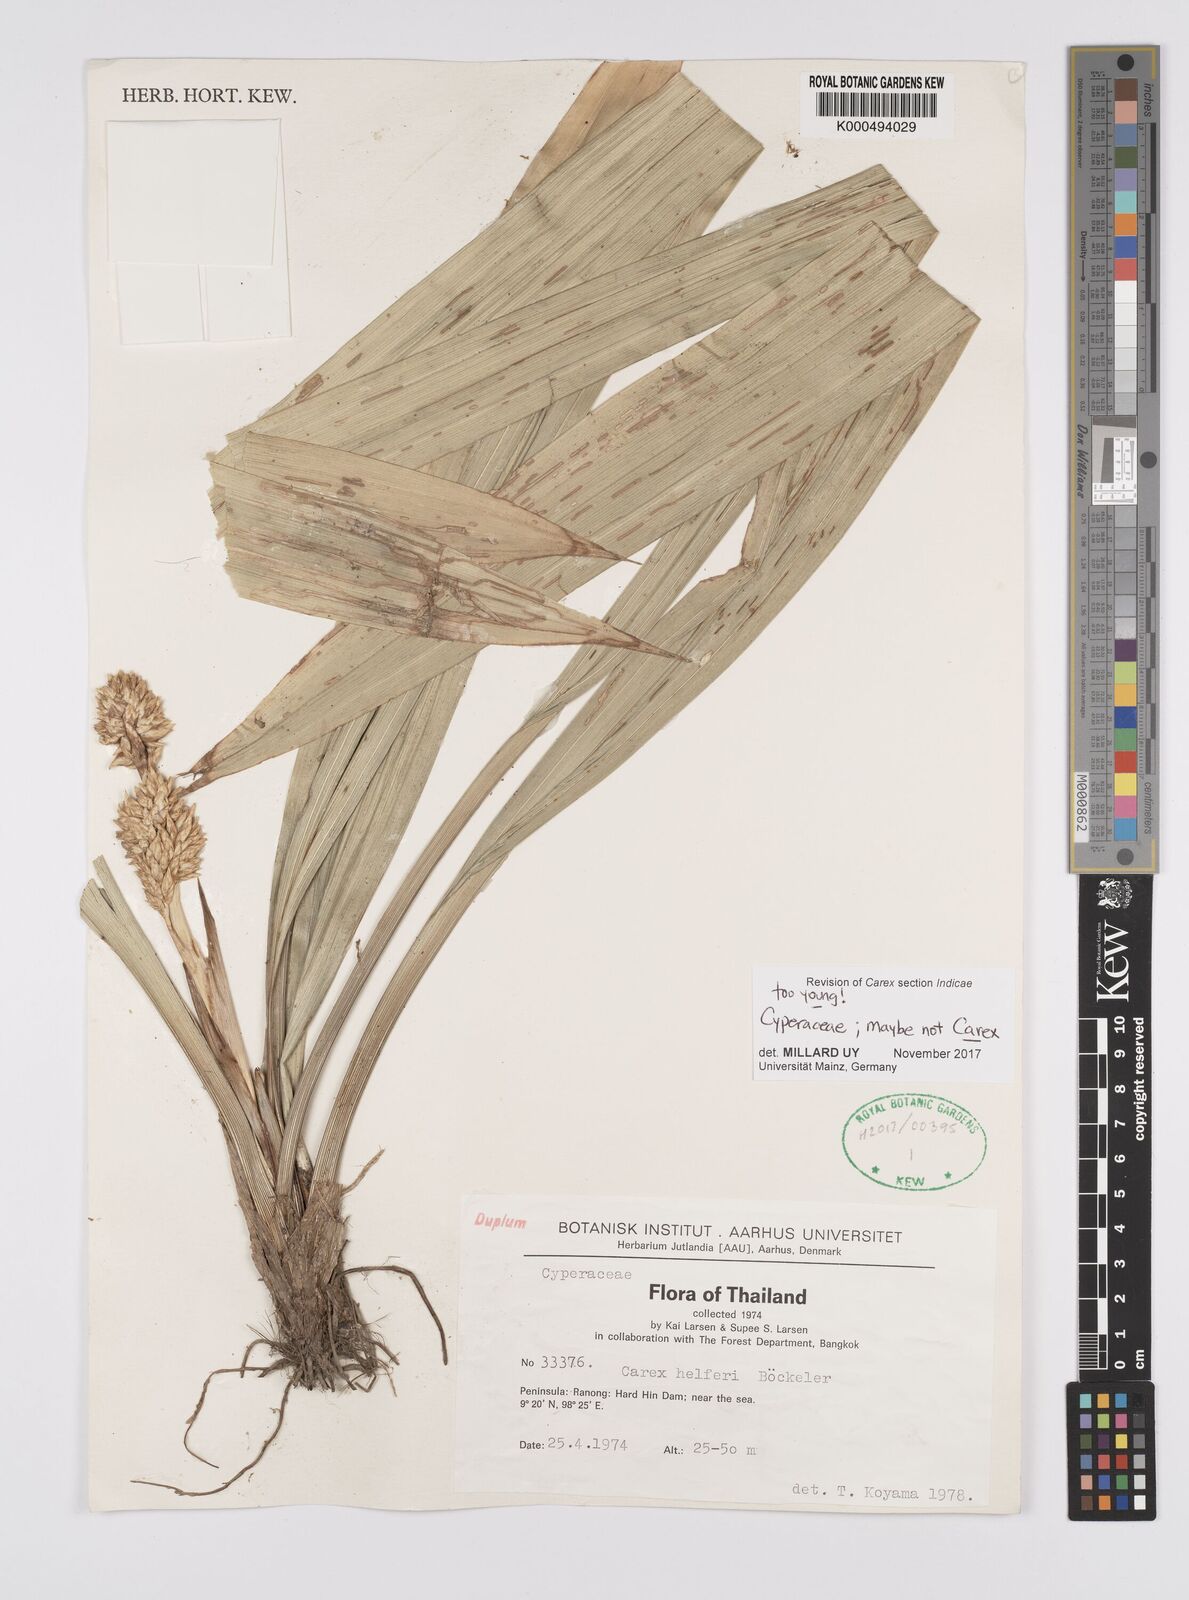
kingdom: Plantae
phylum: Tracheophyta
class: Liliopsida
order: Poales
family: Cyperaceae
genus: Carex
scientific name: Carex helferi
